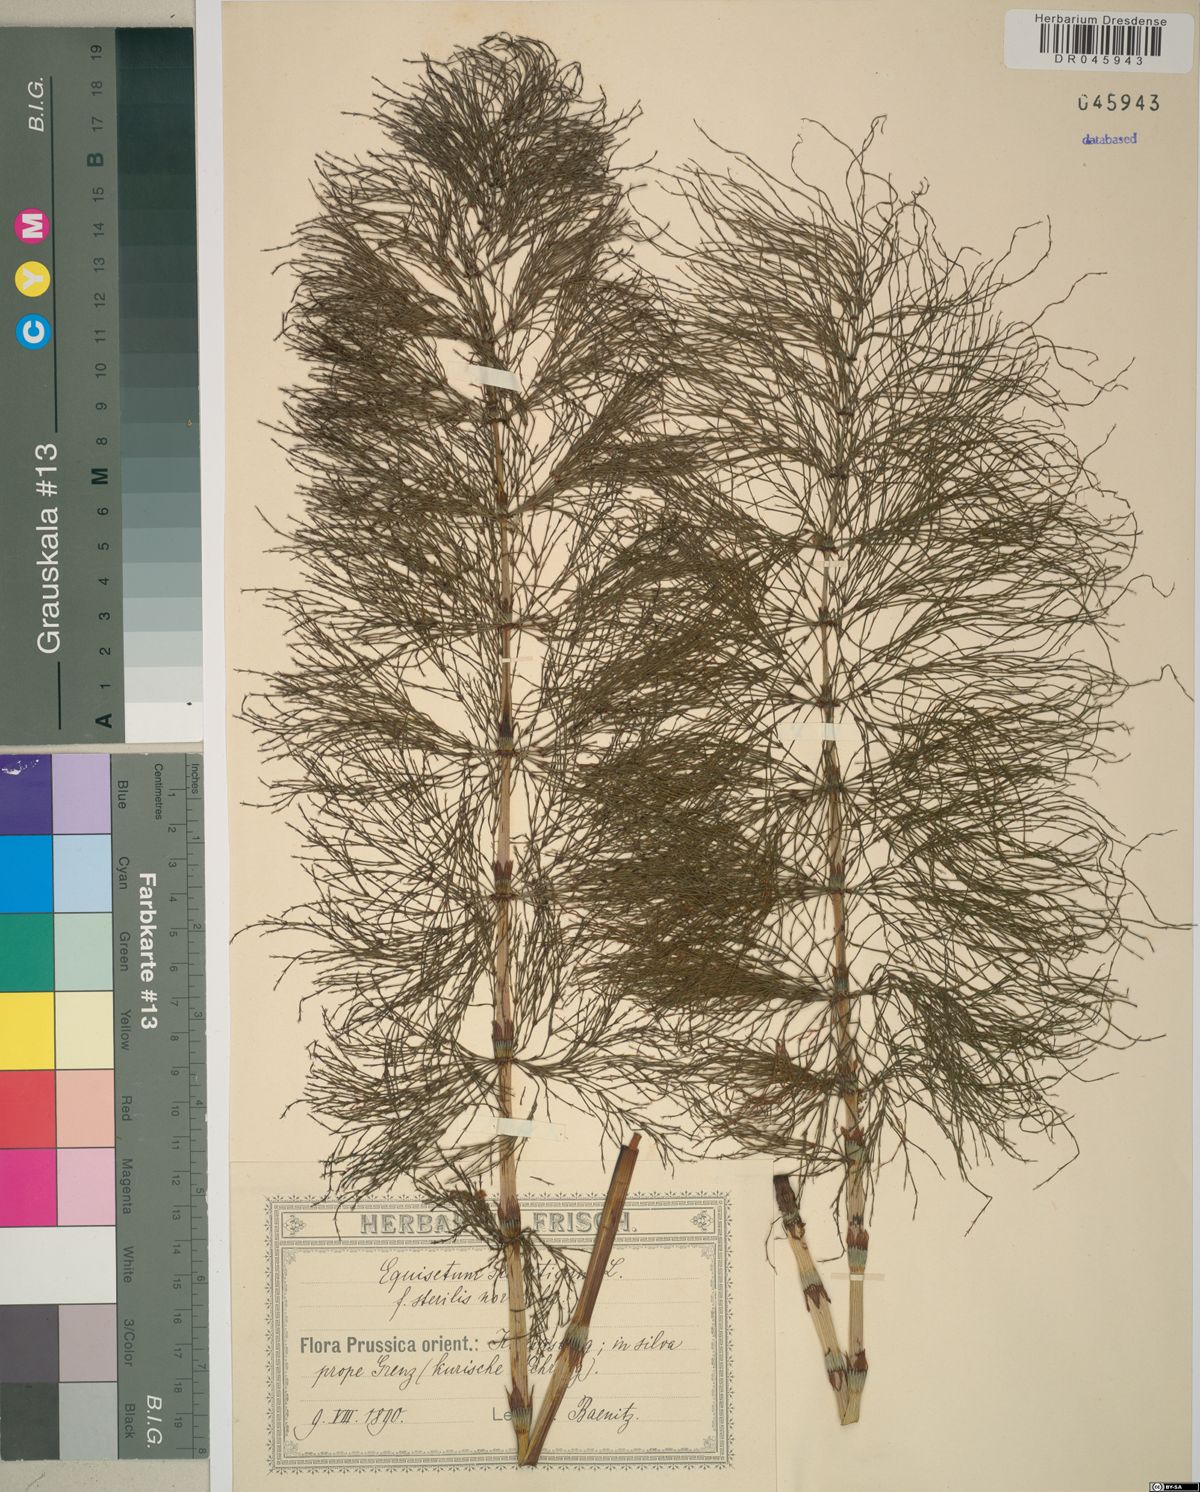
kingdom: Plantae
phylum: Tracheophyta
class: Polypodiopsida
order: Equisetales
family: Equisetaceae
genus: Equisetum
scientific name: Equisetum sylvaticum
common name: Wood horsetail
